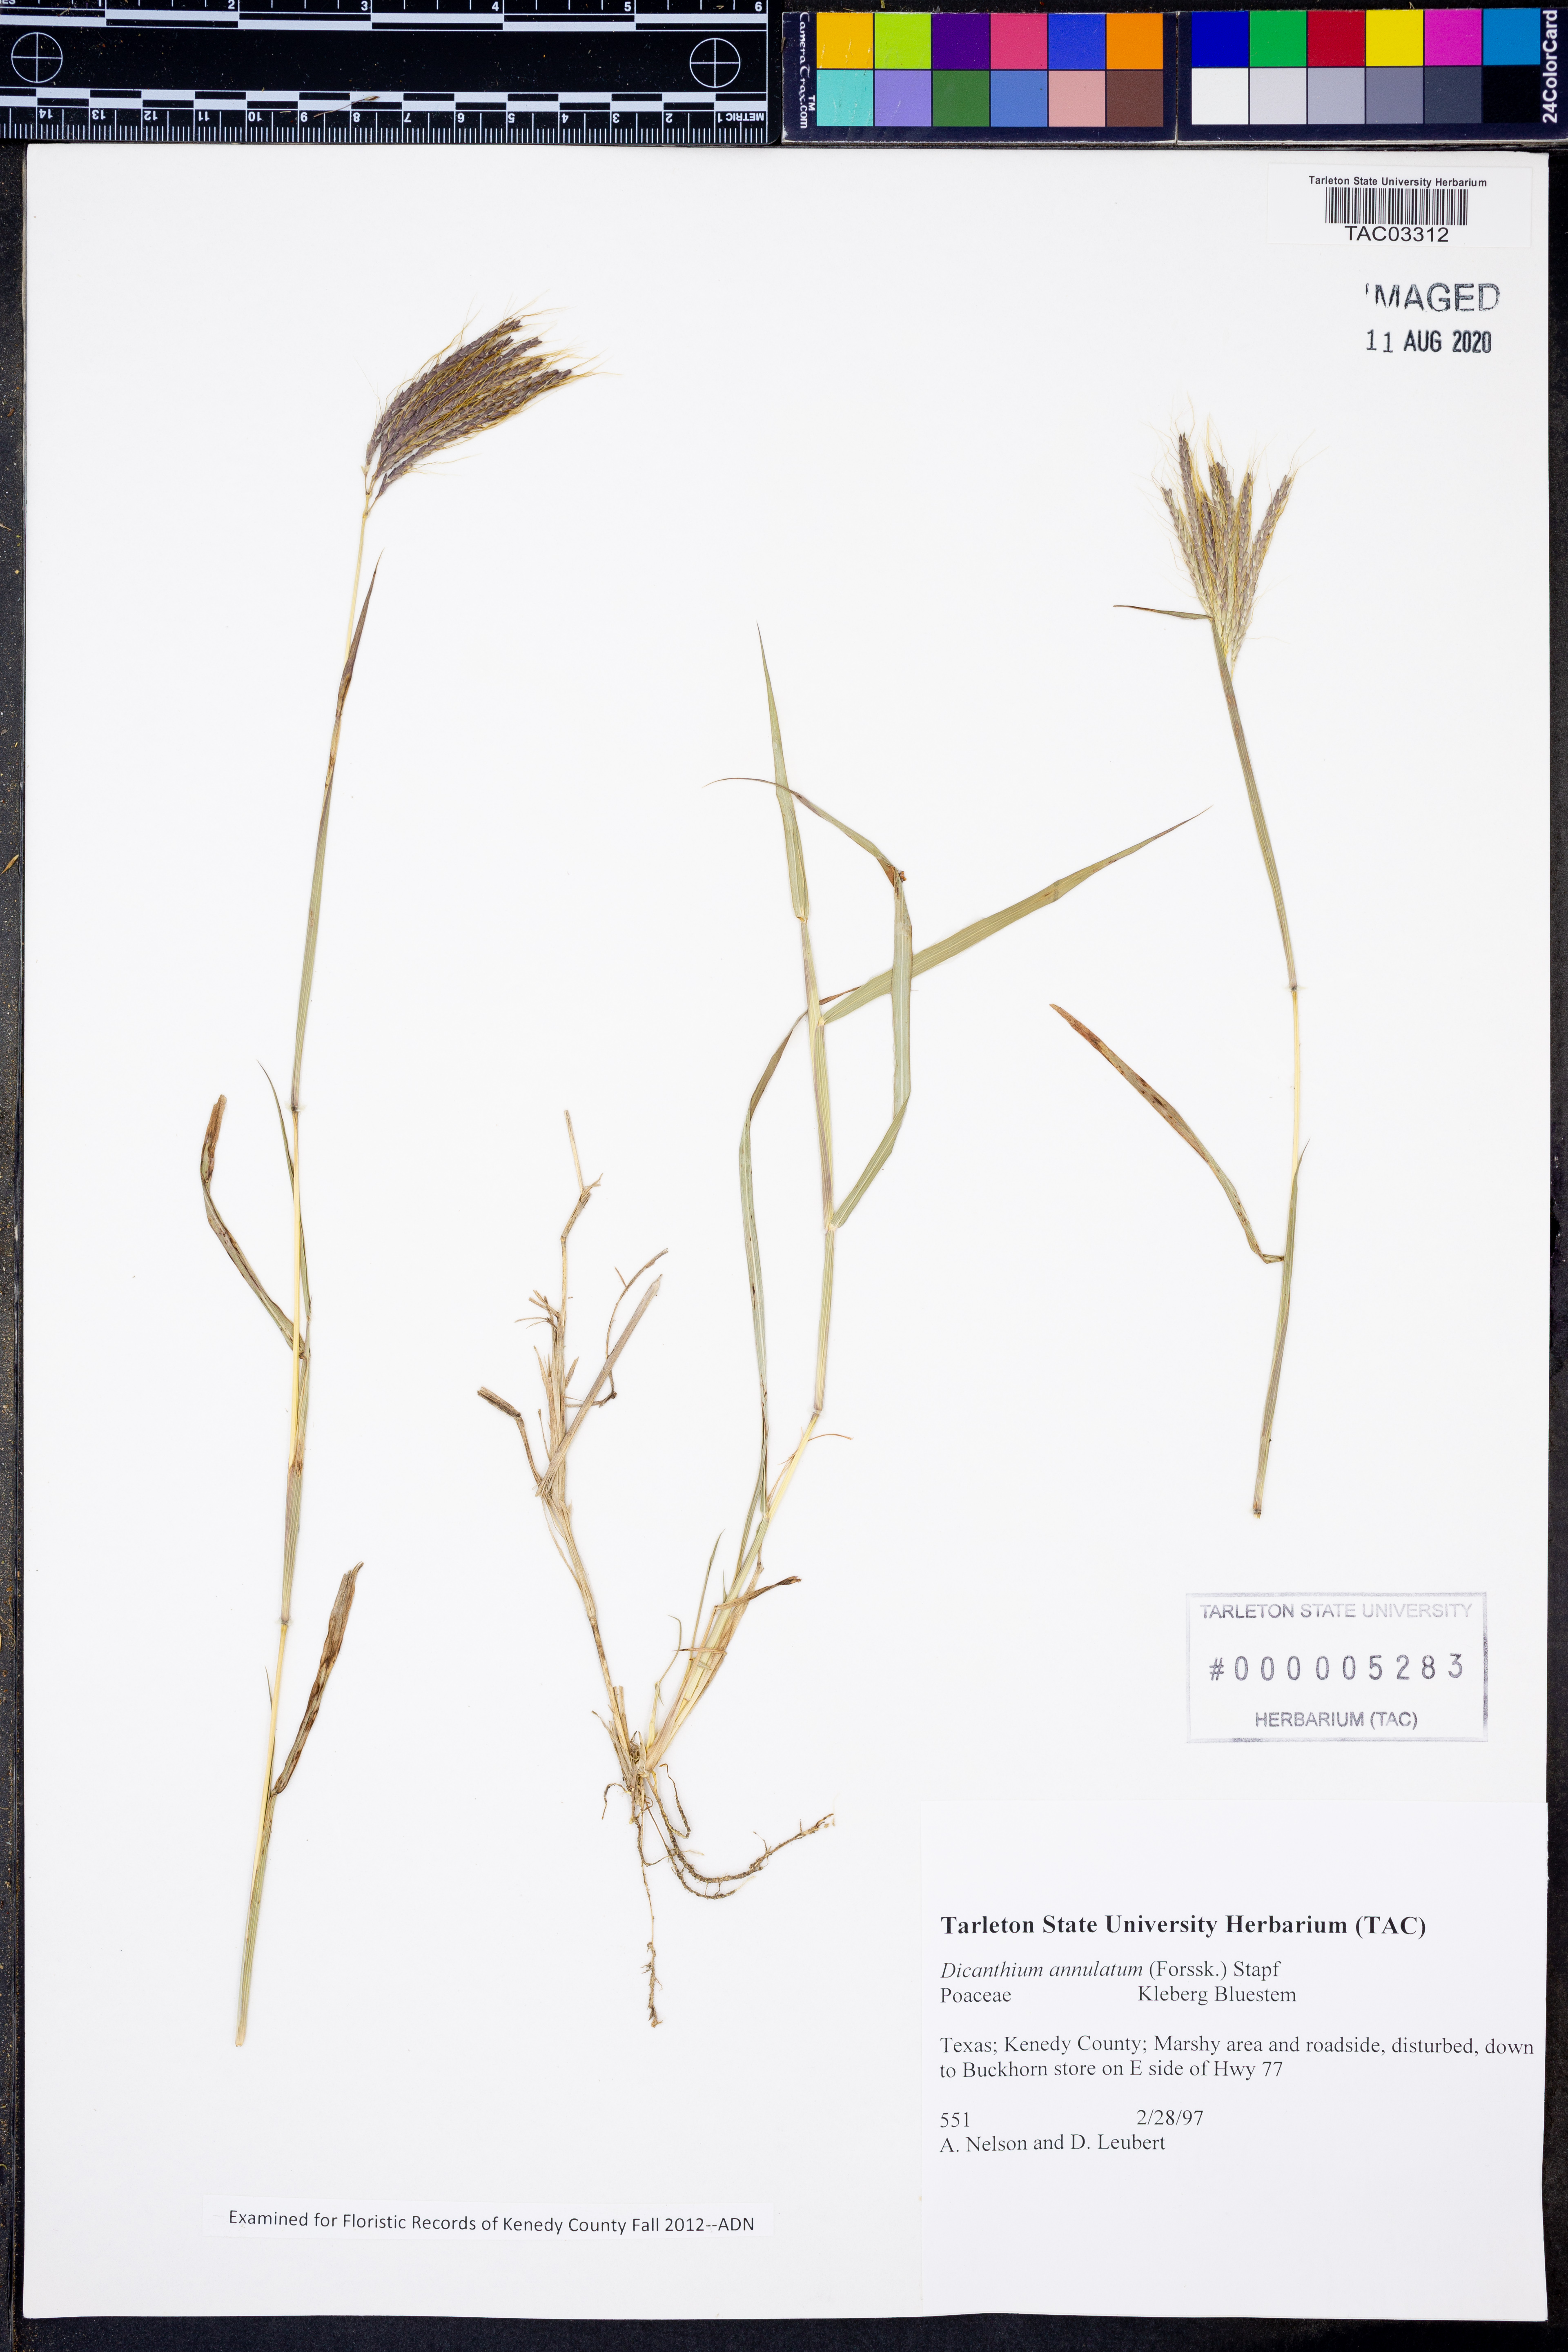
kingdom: Plantae
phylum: Tracheophyta
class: Liliopsida
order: Poales
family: Poaceae
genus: Dichanthium
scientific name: Dichanthium annulatum
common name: Kleberg's bluestem
